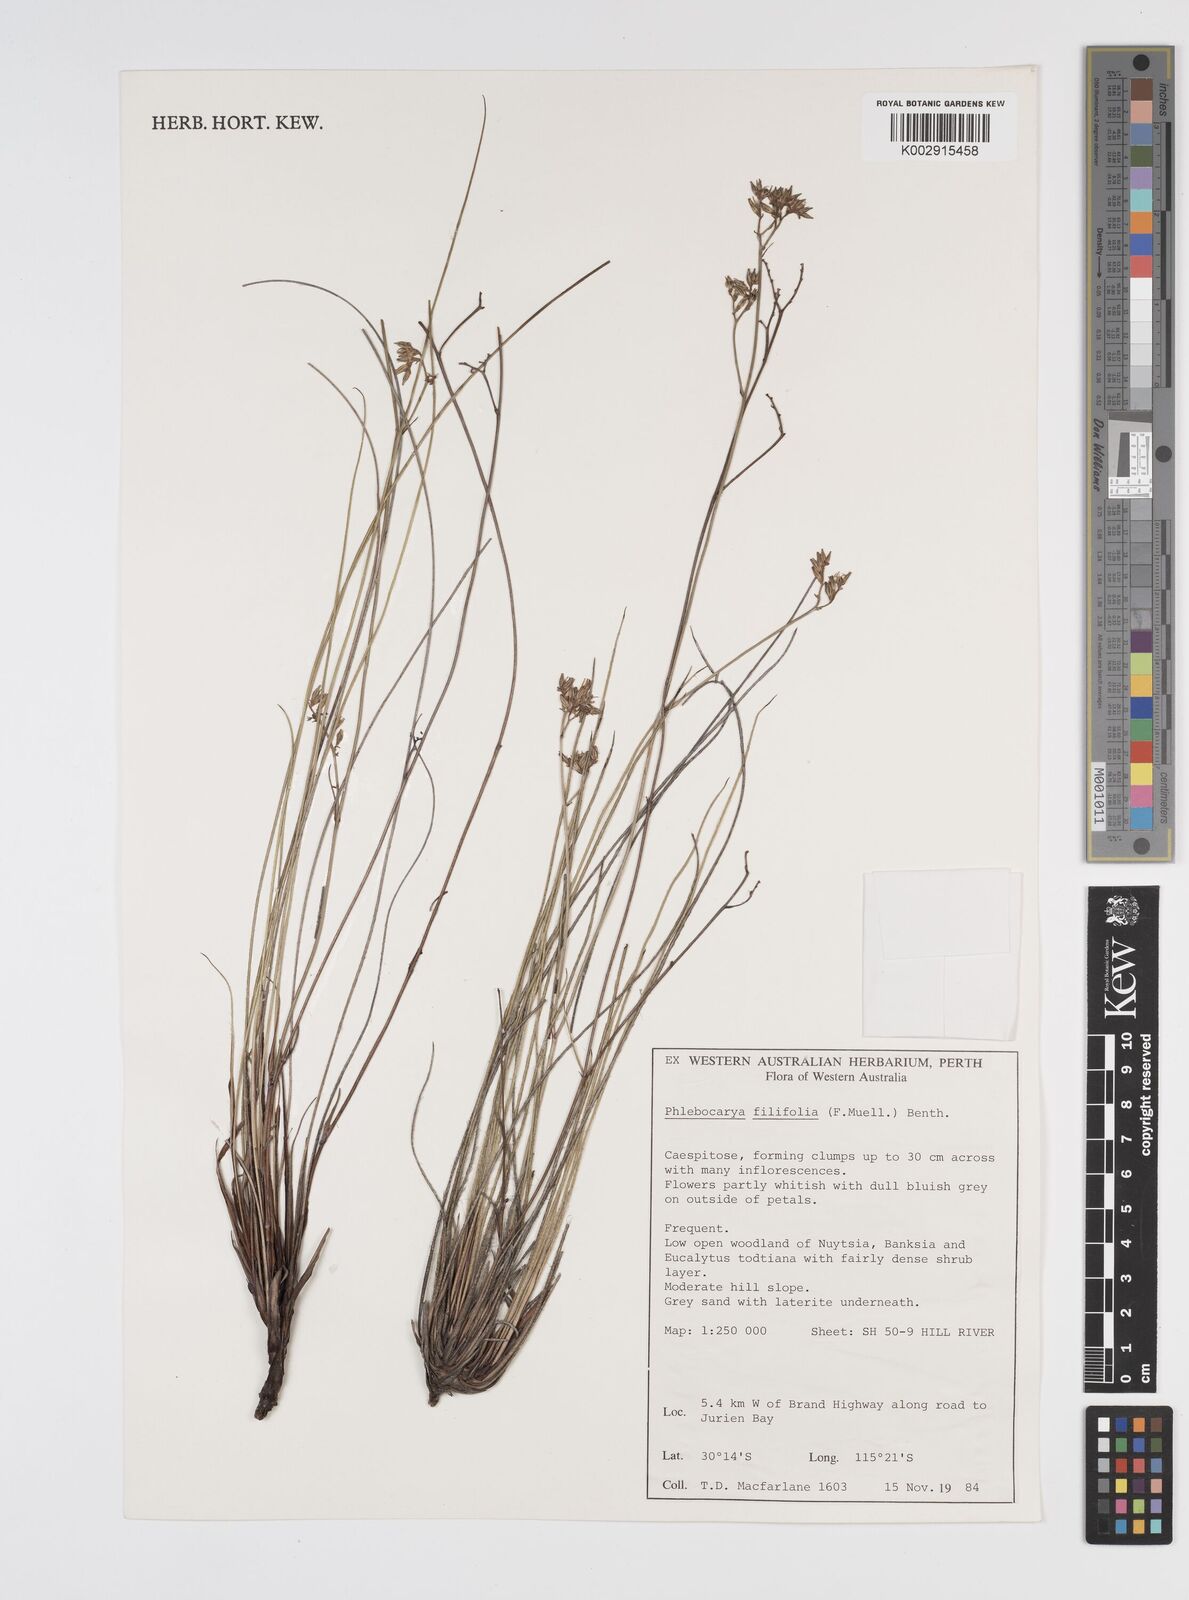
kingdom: Plantae
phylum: Tracheophyta
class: Liliopsida
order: Commelinales
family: Haemodoraceae
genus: Phlebocarya
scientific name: Phlebocarya filifolia
